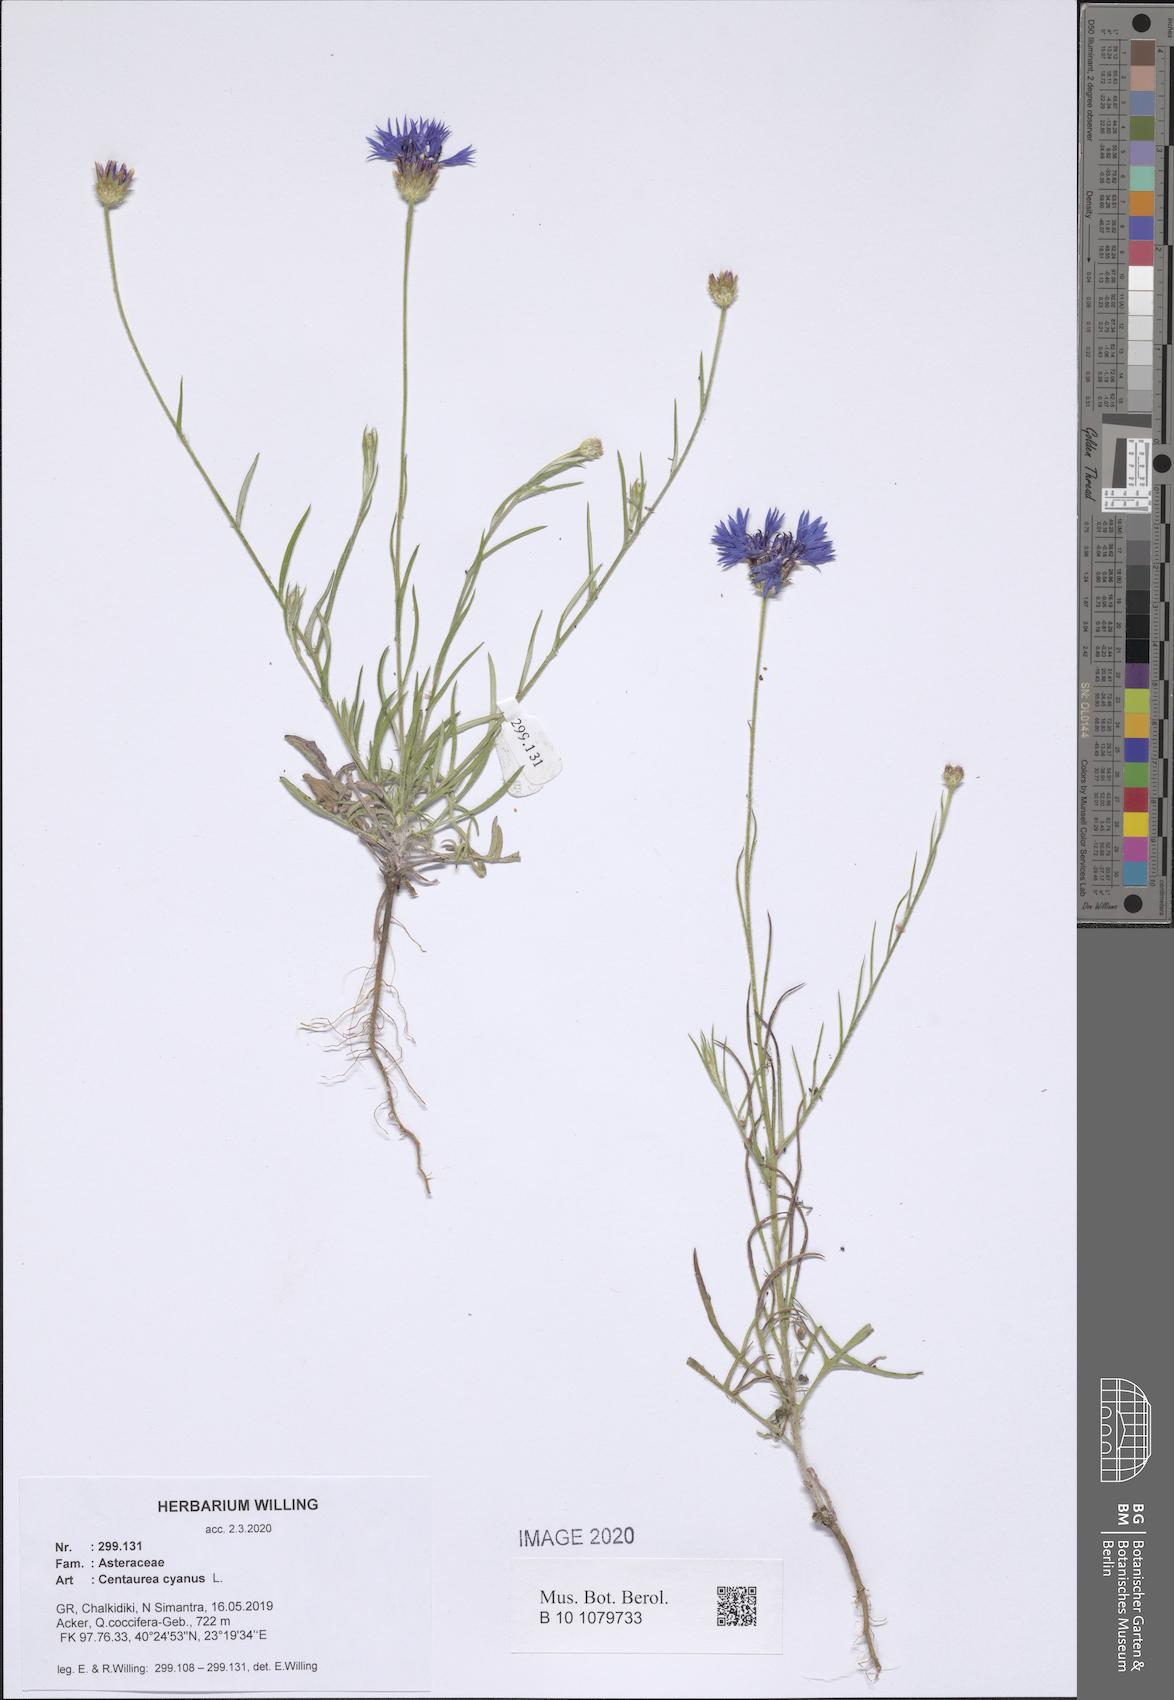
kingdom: Plantae
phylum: Tracheophyta
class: Magnoliopsida
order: Asterales
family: Asteraceae
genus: Centaurea
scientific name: Centaurea cyanus
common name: Cornflower
